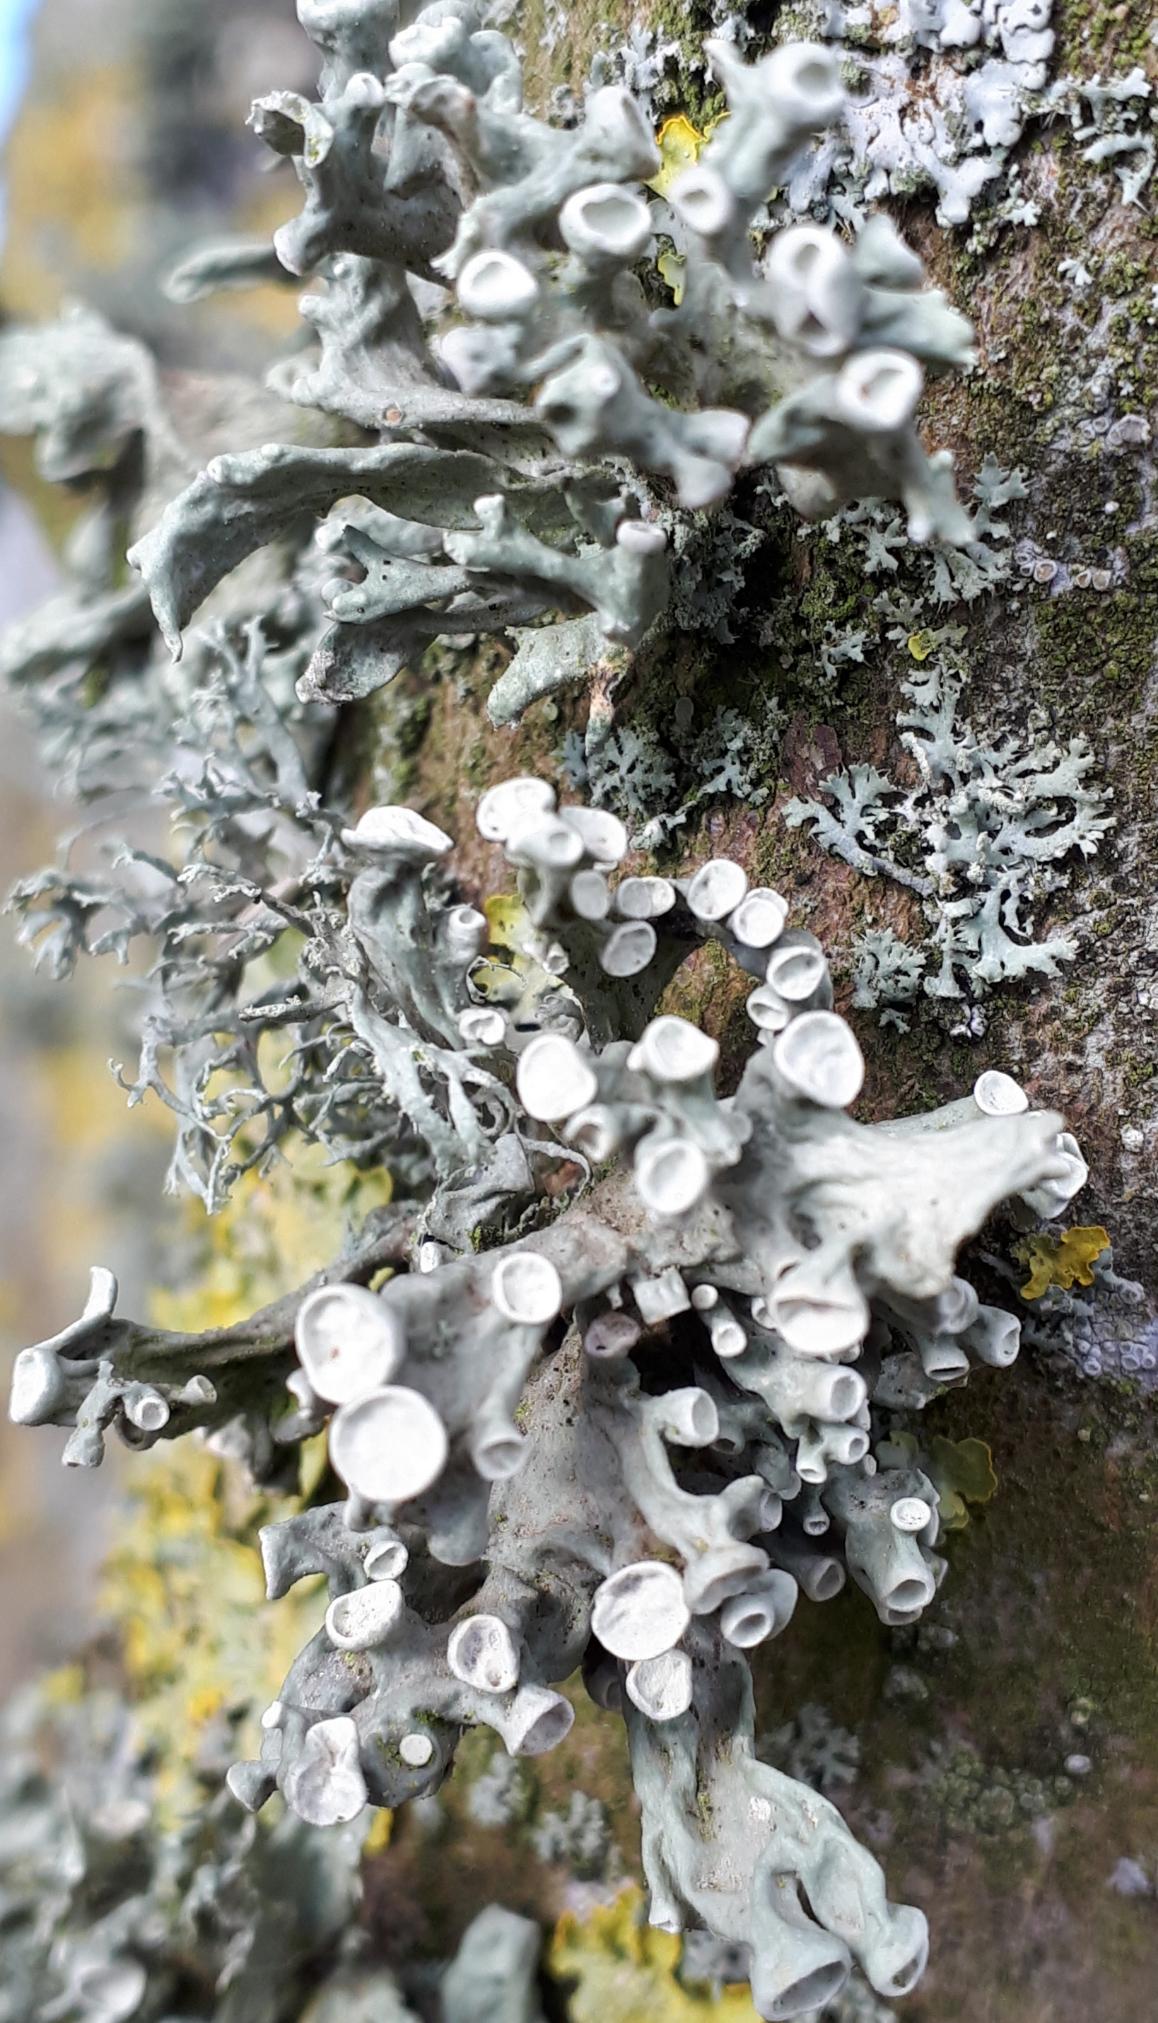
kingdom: Fungi
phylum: Ascomycota
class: Lecanoromycetes
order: Lecanorales
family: Ramalinaceae
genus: Ramalina
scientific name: Ramalina fastigiata
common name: Tue-grenlav
